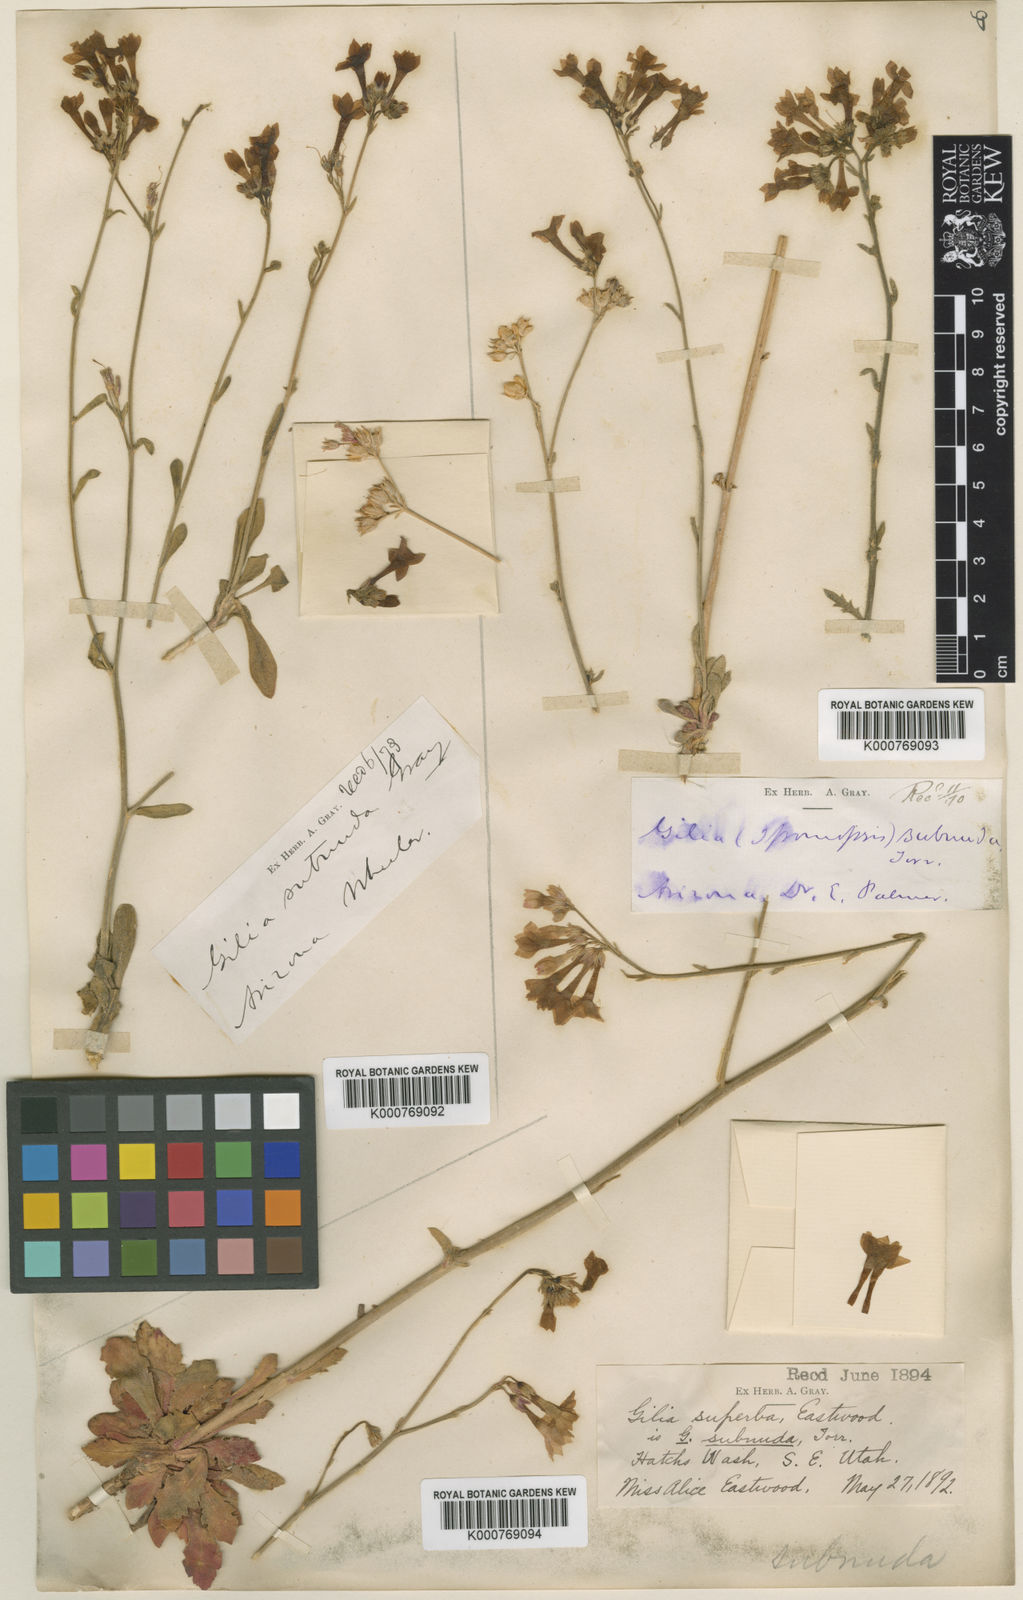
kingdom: Plantae
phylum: Tracheophyta
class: Magnoliopsida
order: Ericales
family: Polemoniaceae
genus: Aliciella
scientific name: Aliciella subnuda
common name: Coral gilia
